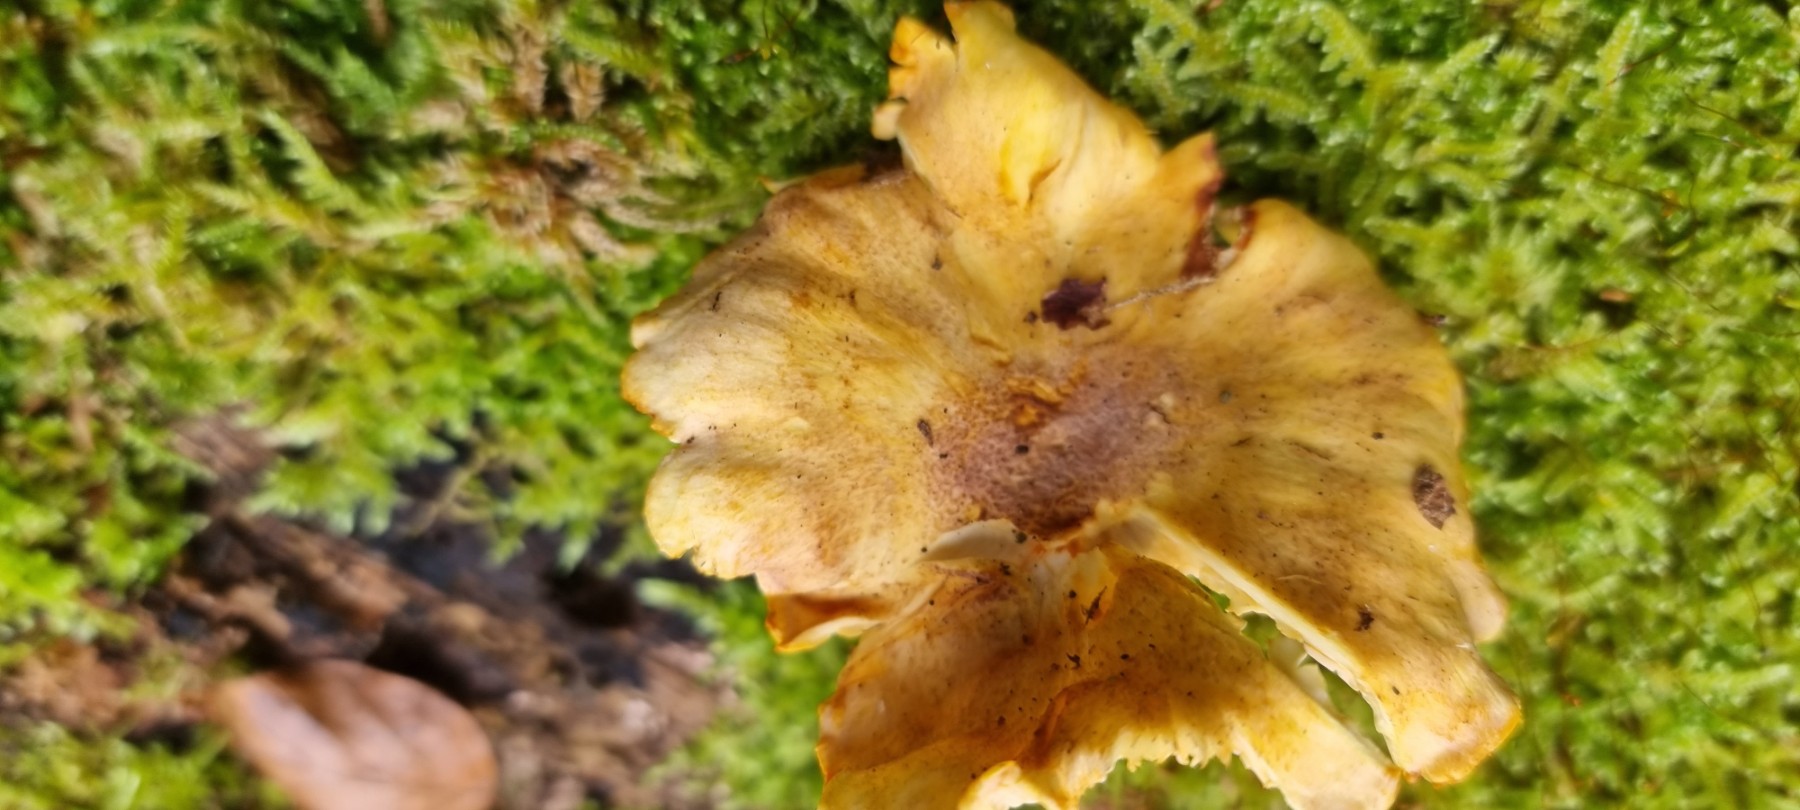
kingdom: Fungi
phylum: Basidiomycota
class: Agaricomycetes
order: Cantharellales
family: Hydnaceae
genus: Cantharellus
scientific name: Cantharellus amethysteus
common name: ametyst-kantarel
